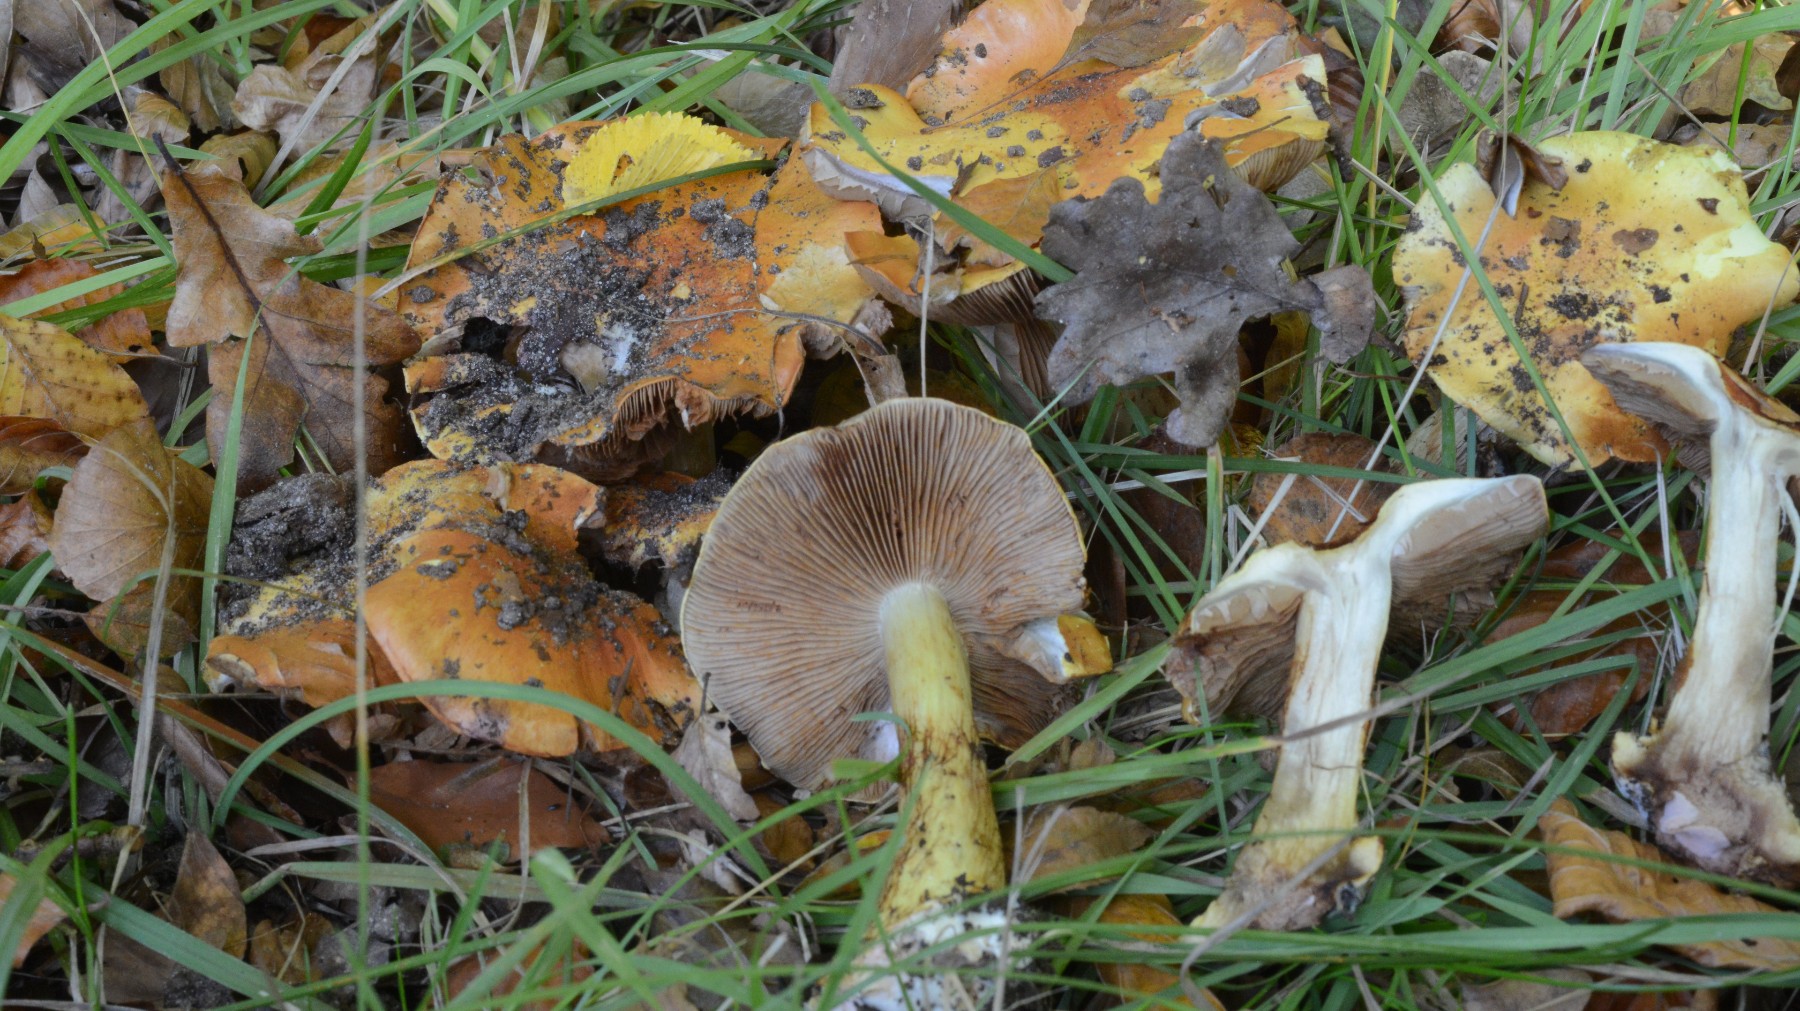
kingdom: Fungi
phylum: Basidiomycota
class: Agaricomycetes
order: Agaricales
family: Cortinariaceae
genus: Calonarius
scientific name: Calonarius alcalinophilus
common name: gyldenbrun slørhat
